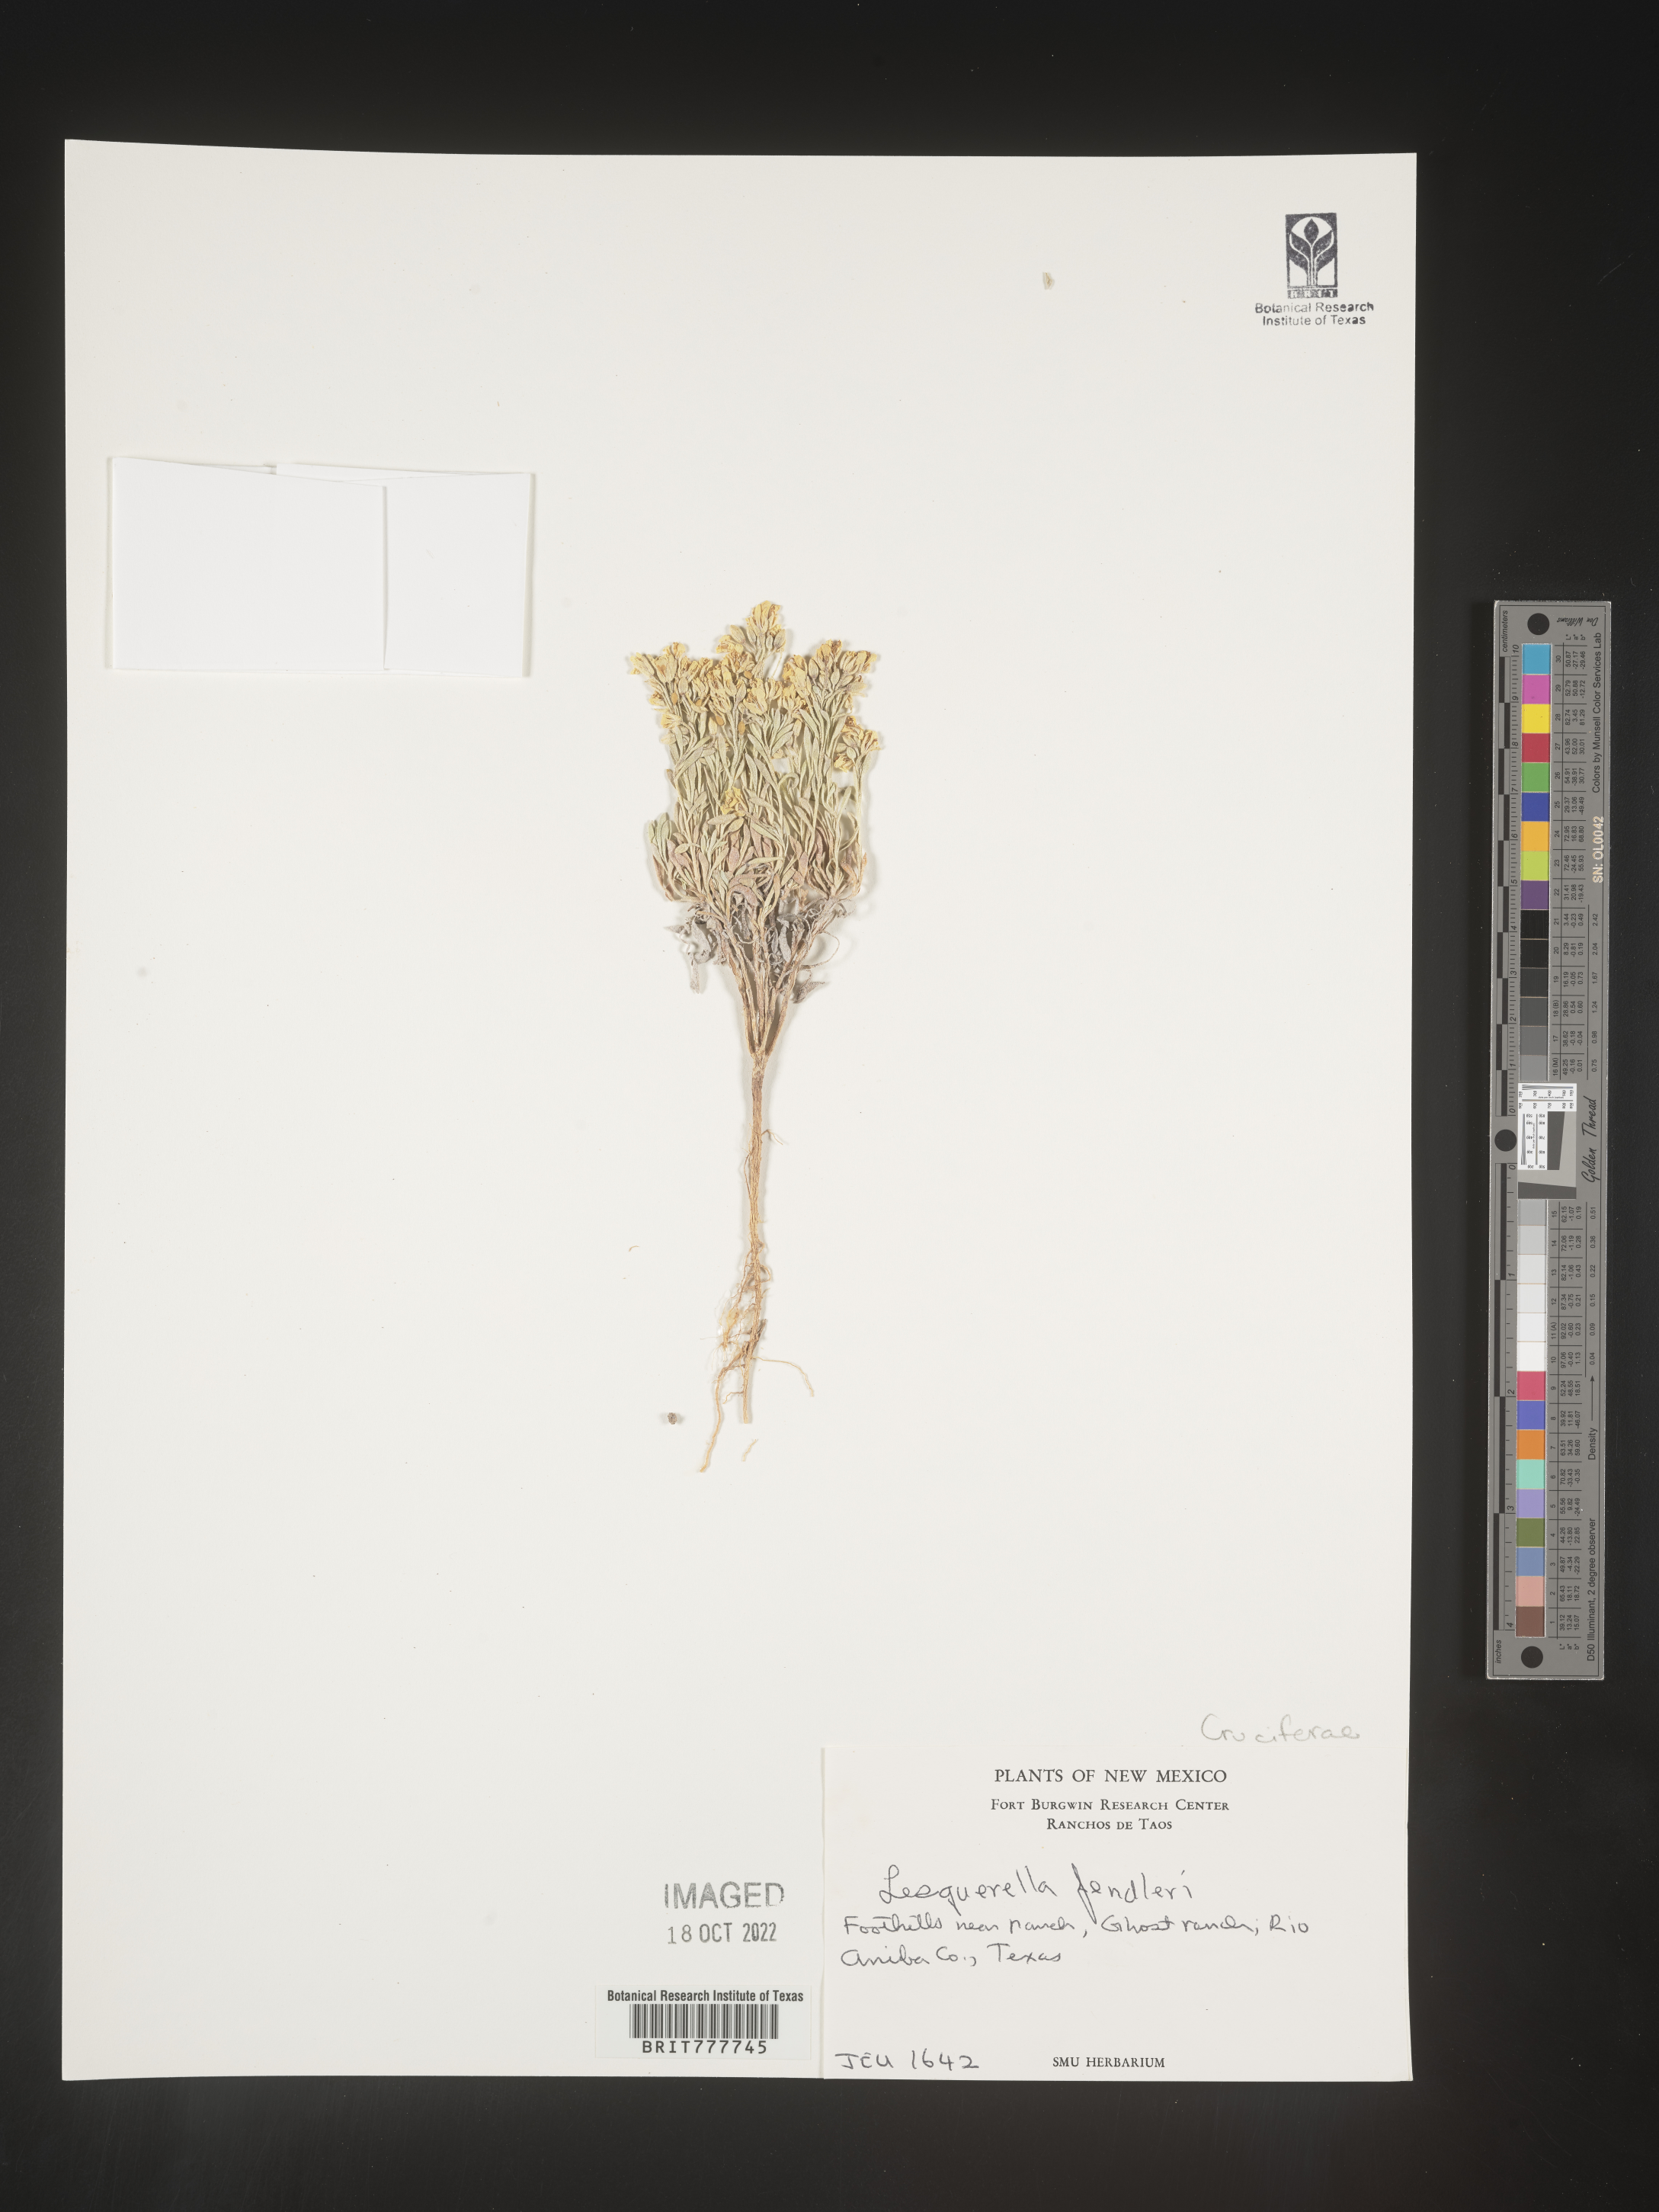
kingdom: Plantae
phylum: Tracheophyta
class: Magnoliopsida
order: Brassicales
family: Brassicaceae
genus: Physaria
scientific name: Physaria fendleri
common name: Fendler's bladderpod
